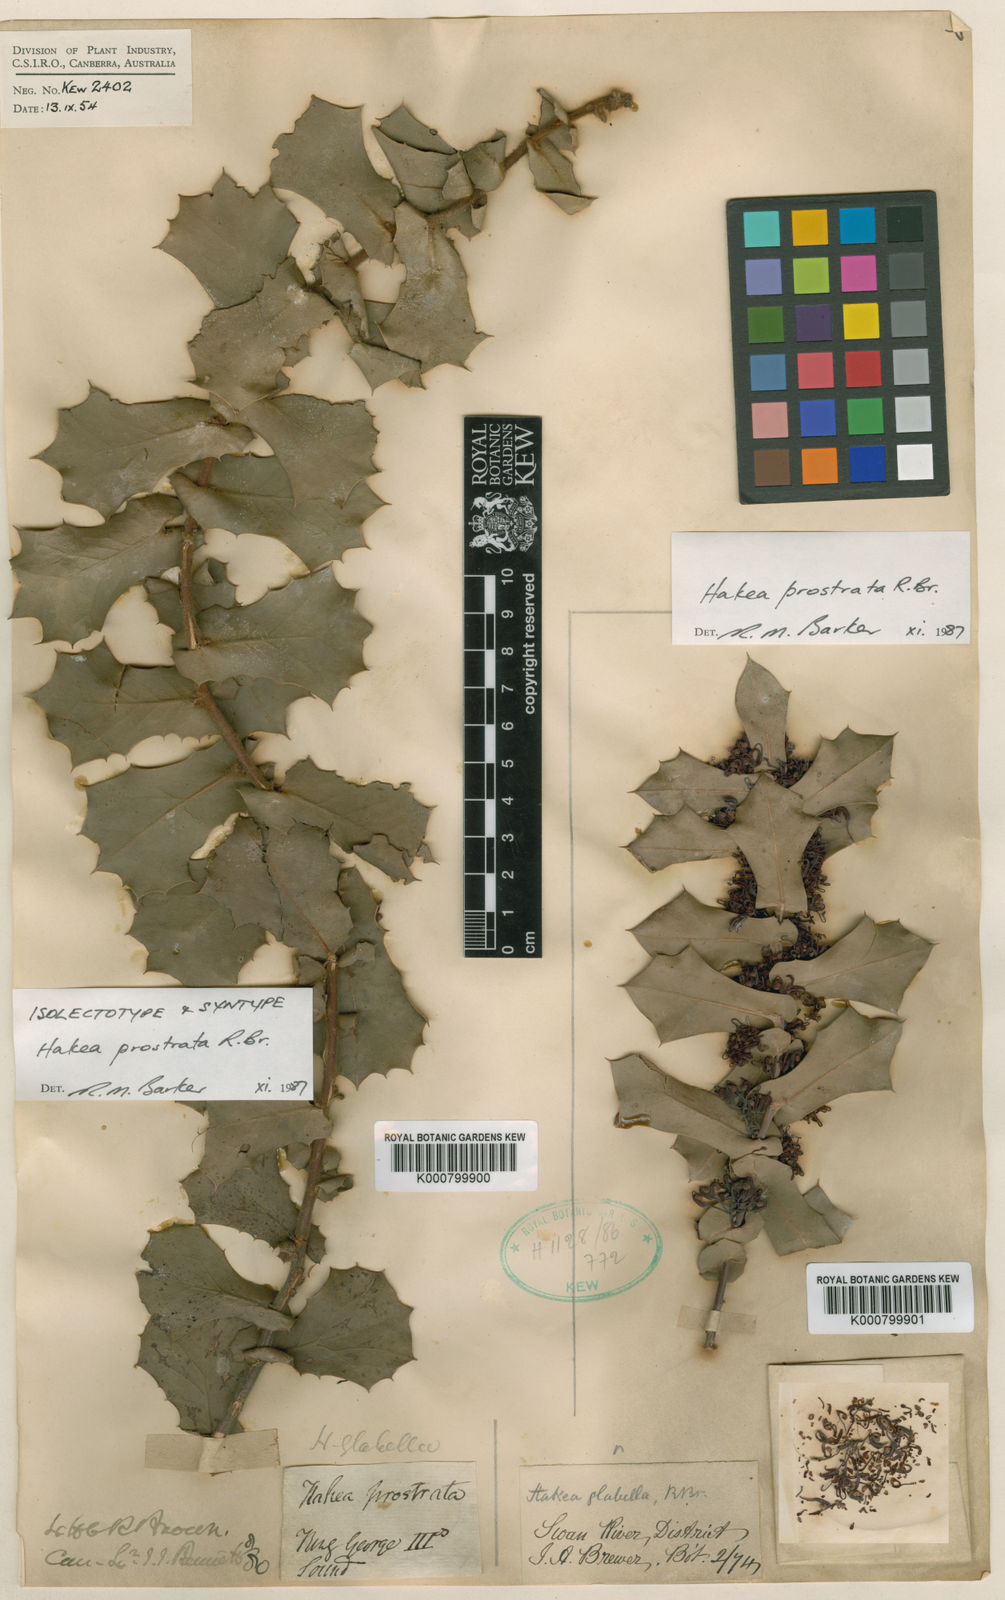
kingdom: Plantae
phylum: Tracheophyta
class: Magnoliopsida
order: Proteales
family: Proteaceae
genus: Hakea
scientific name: Hakea prostrata
